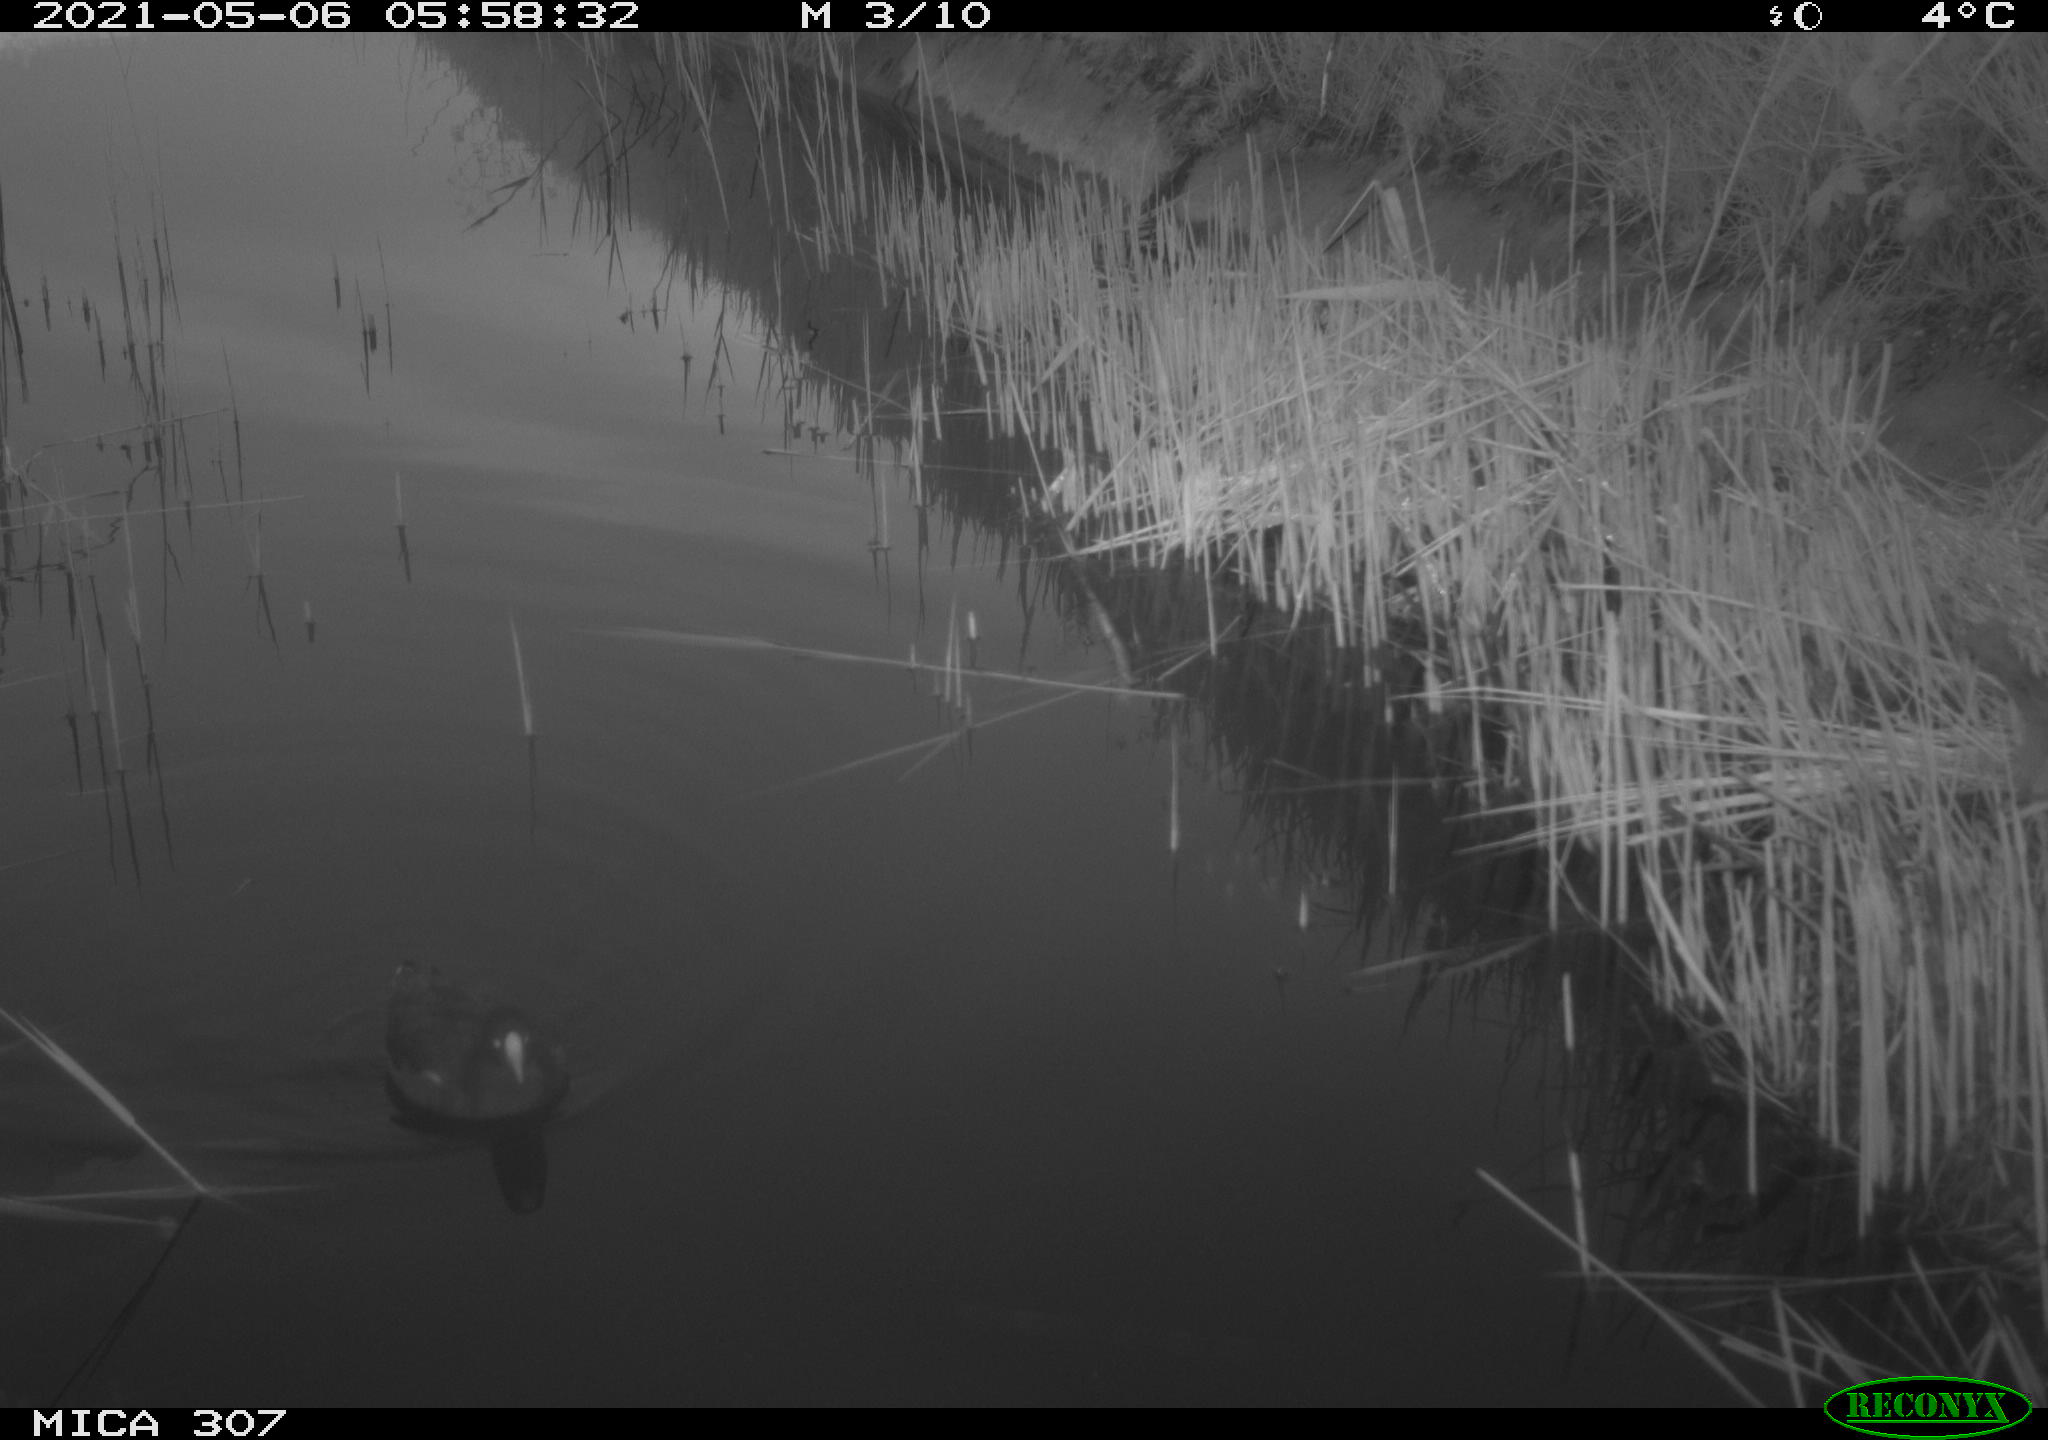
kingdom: Animalia
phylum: Chordata
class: Aves
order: Gruiformes
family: Rallidae
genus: Gallinula
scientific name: Gallinula chloropus
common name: Common moorhen
